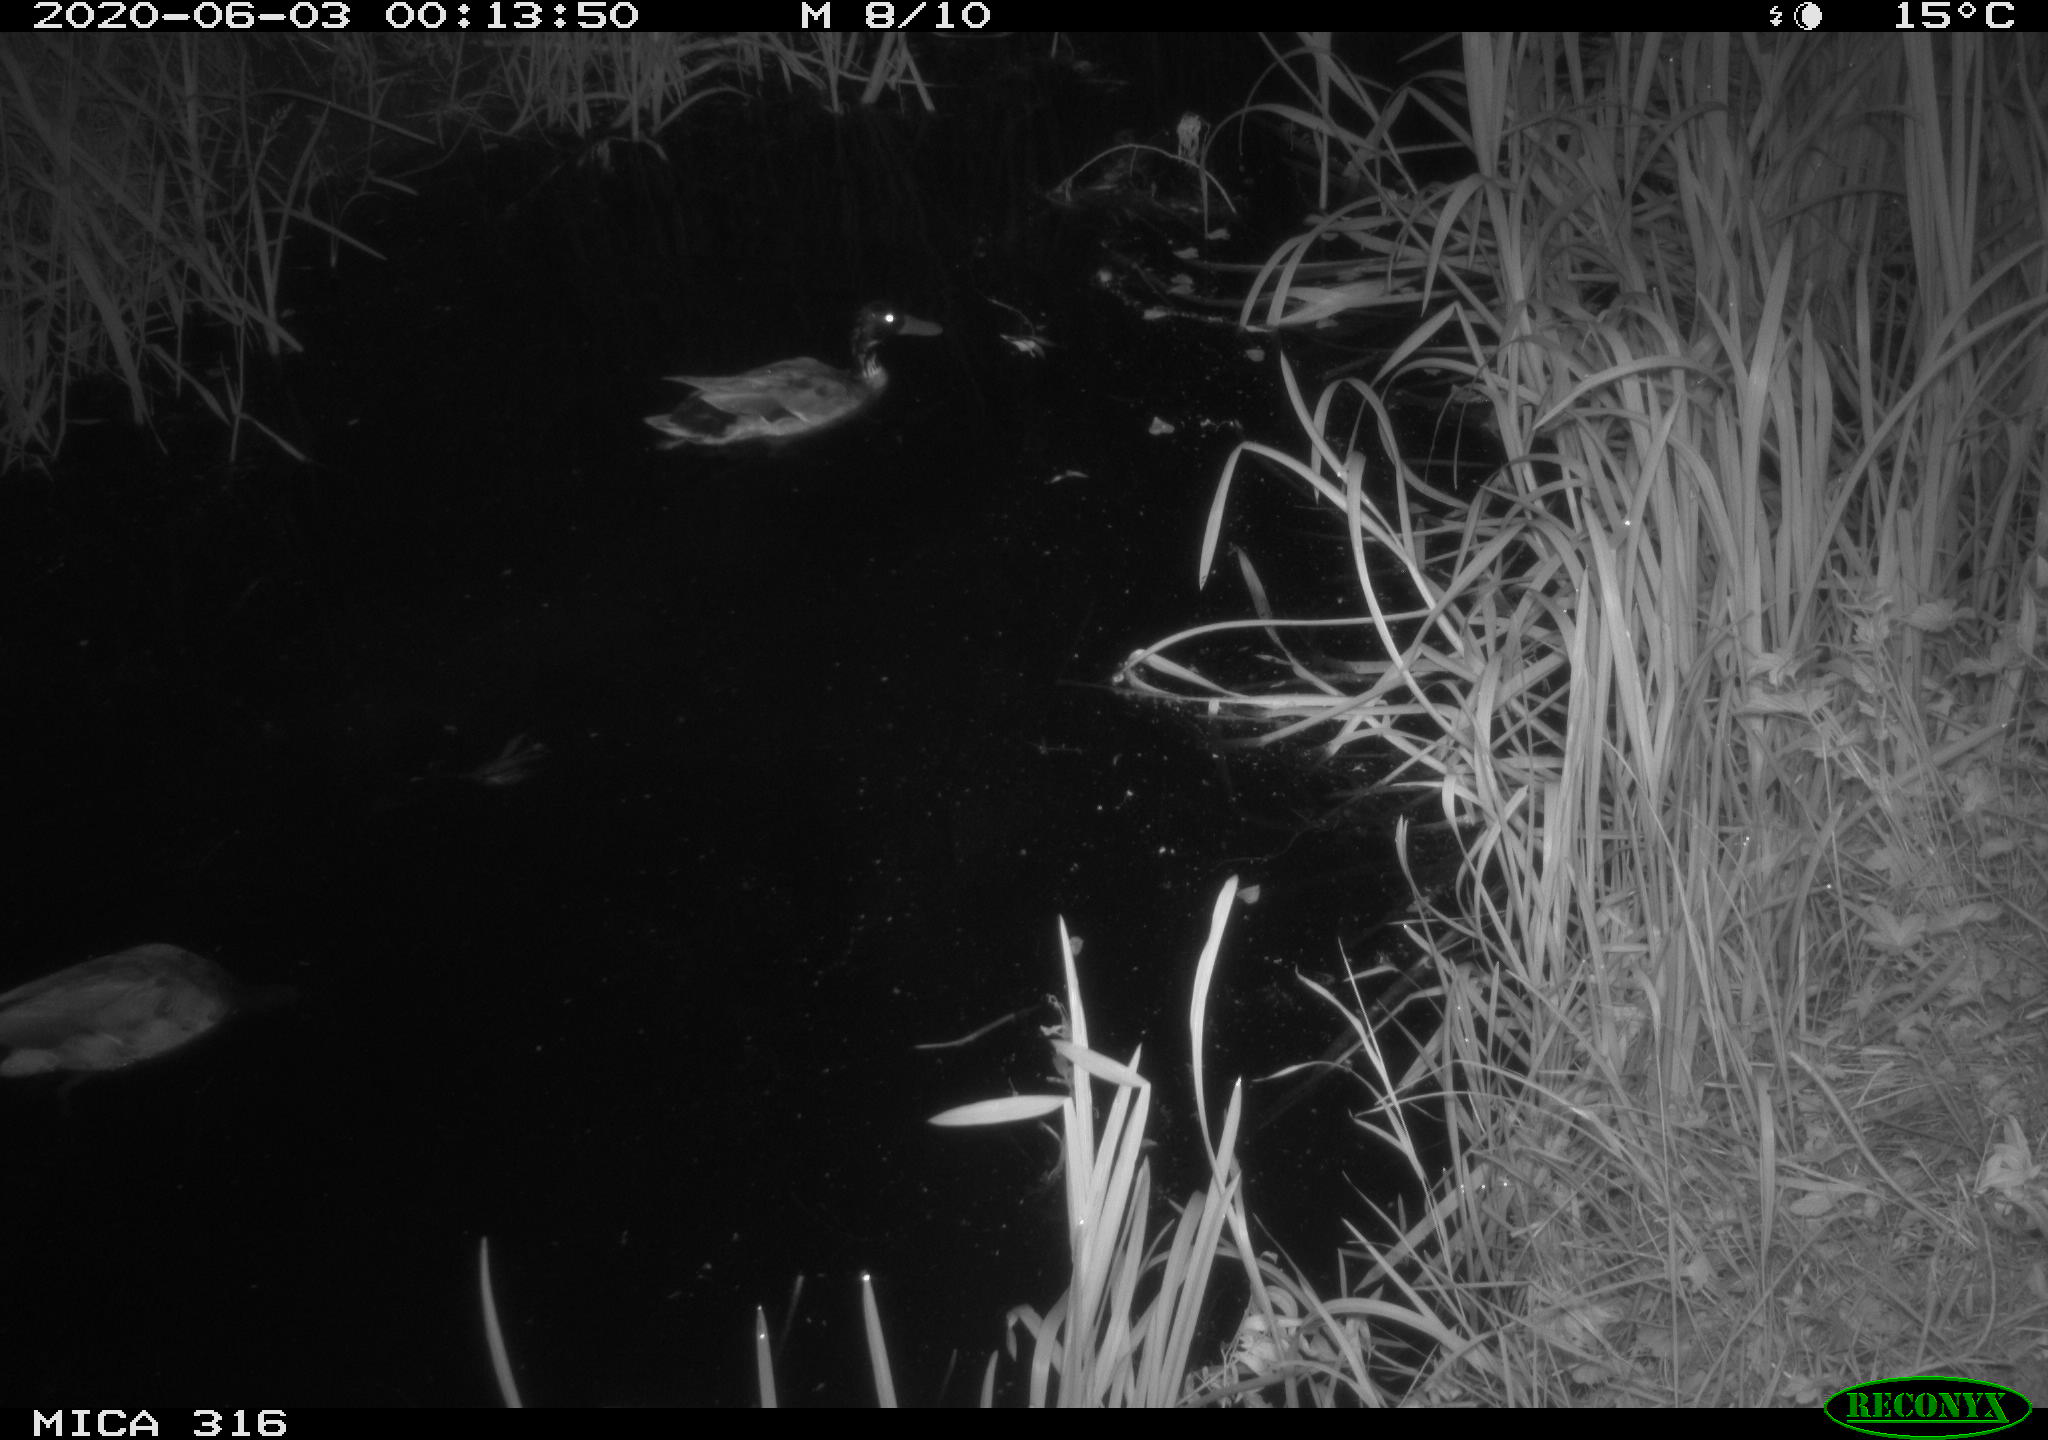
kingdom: Animalia
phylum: Chordata
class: Aves
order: Anseriformes
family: Anatidae
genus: Anas
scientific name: Anas platyrhynchos
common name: Mallard
